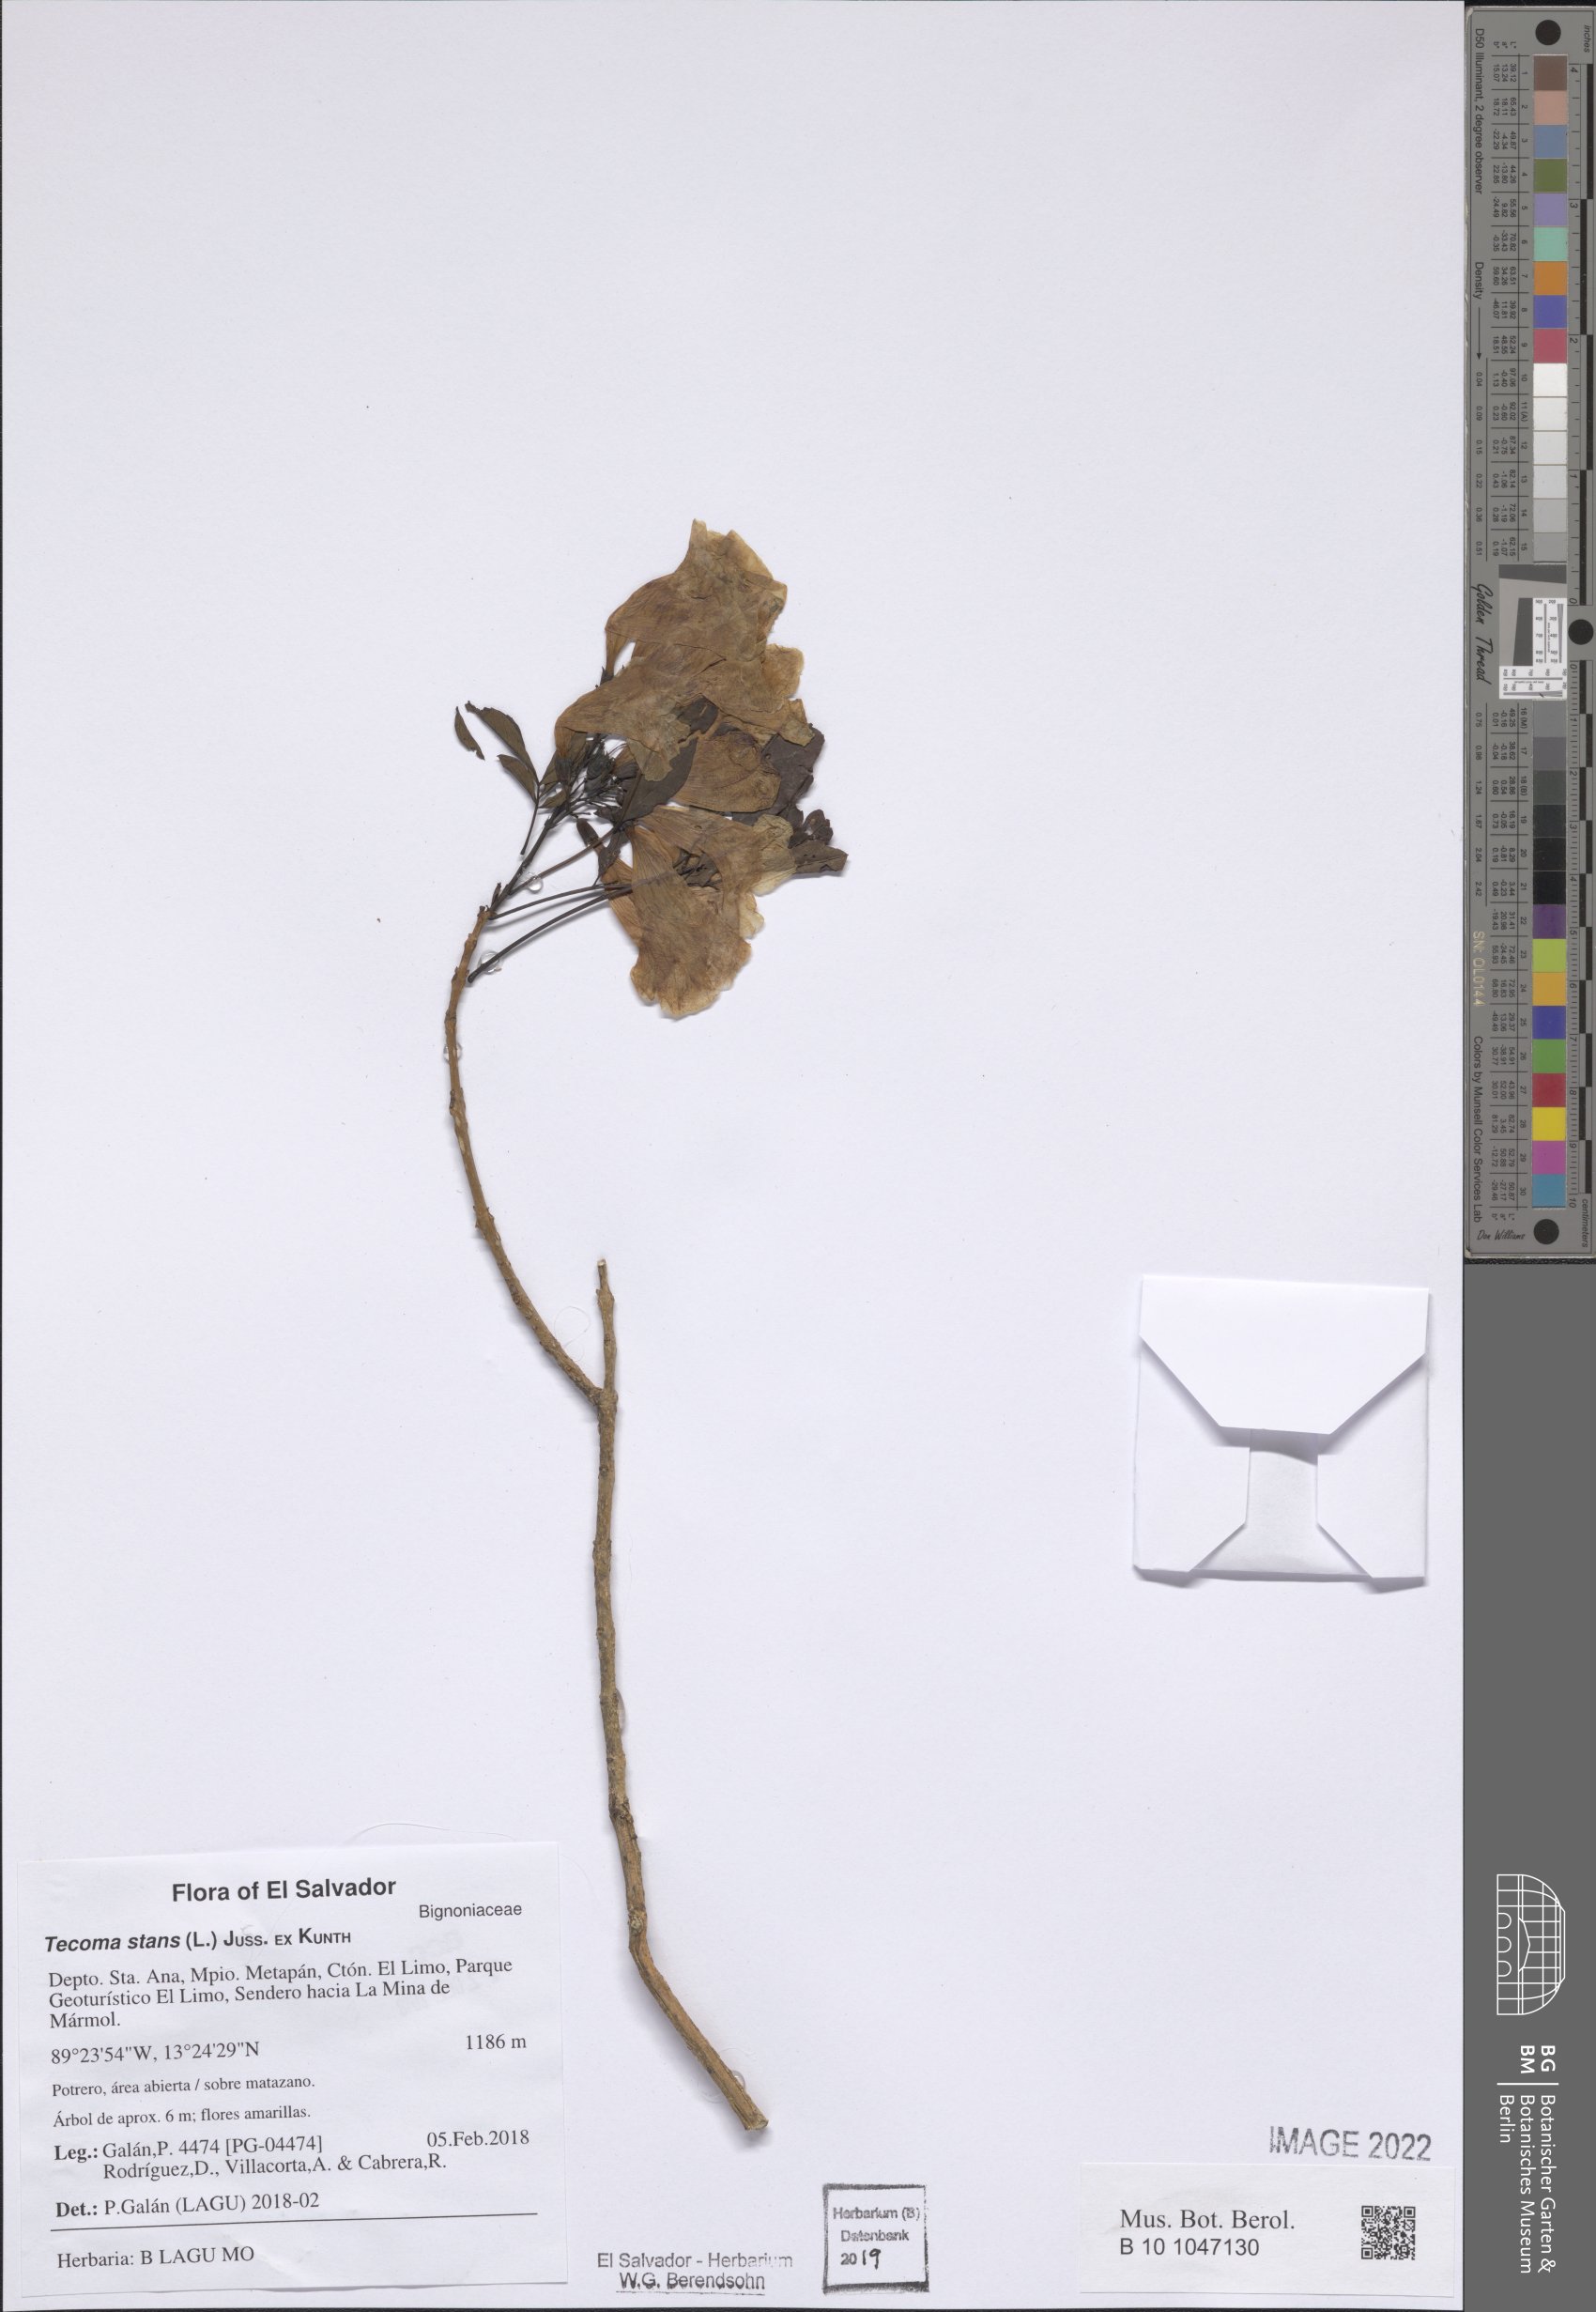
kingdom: Plantae
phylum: Tracheophyta
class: Magnoliopsida
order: Lamiales
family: Bignoniaceae
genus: Tecoma
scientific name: Tecoma stans
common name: Yellow trumpetbush
